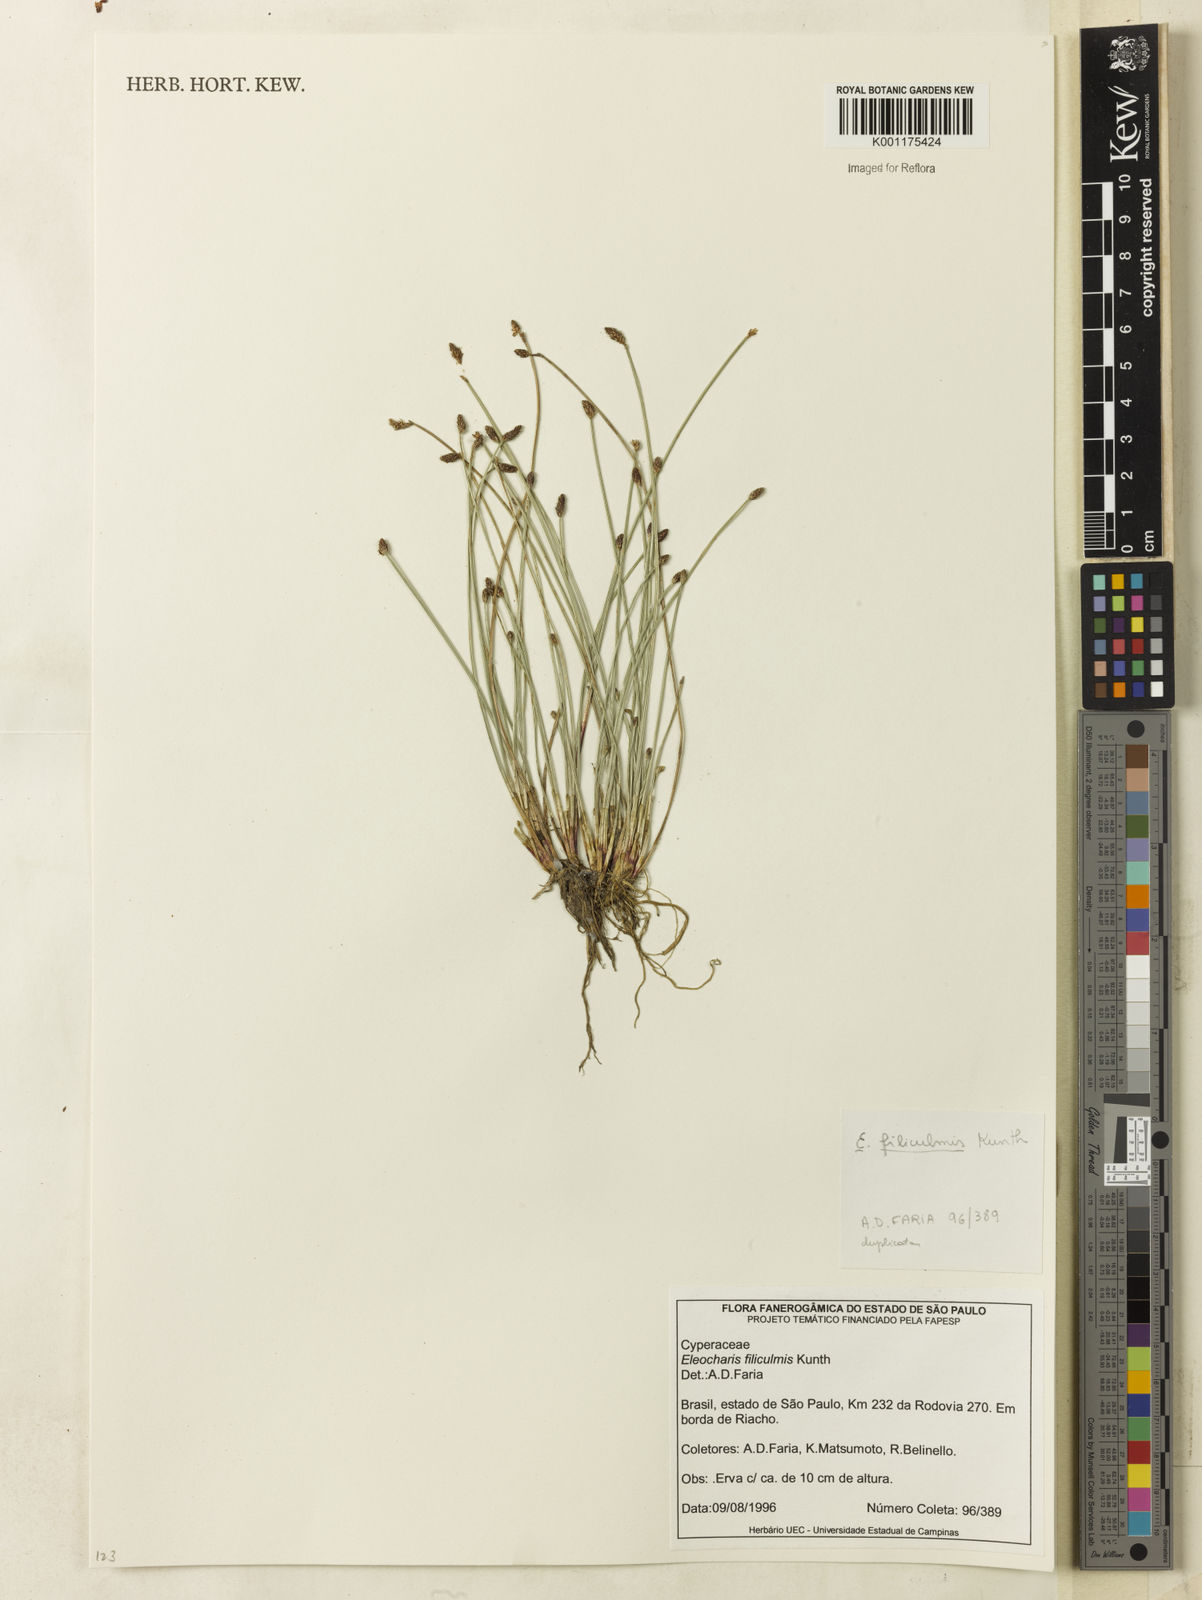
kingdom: Plantae
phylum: Tracheophyta
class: Liliopsida
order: Poales
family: Cyperaceae
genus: Eleocharis
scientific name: Eleocharis filiculmis
